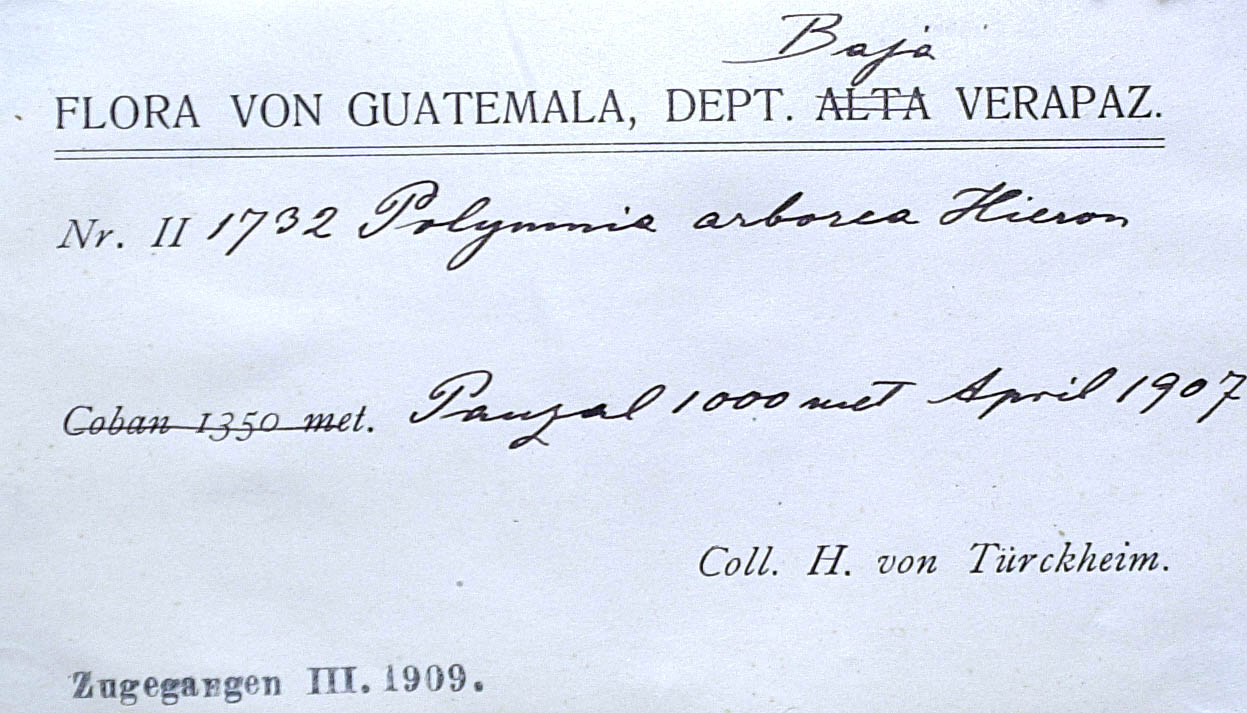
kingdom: Plantae
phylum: Tracheophyta
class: Magnoliopsida
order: Asterales
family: Asteraceae
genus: Rumfordia
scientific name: Rumfordia guatemalensis
